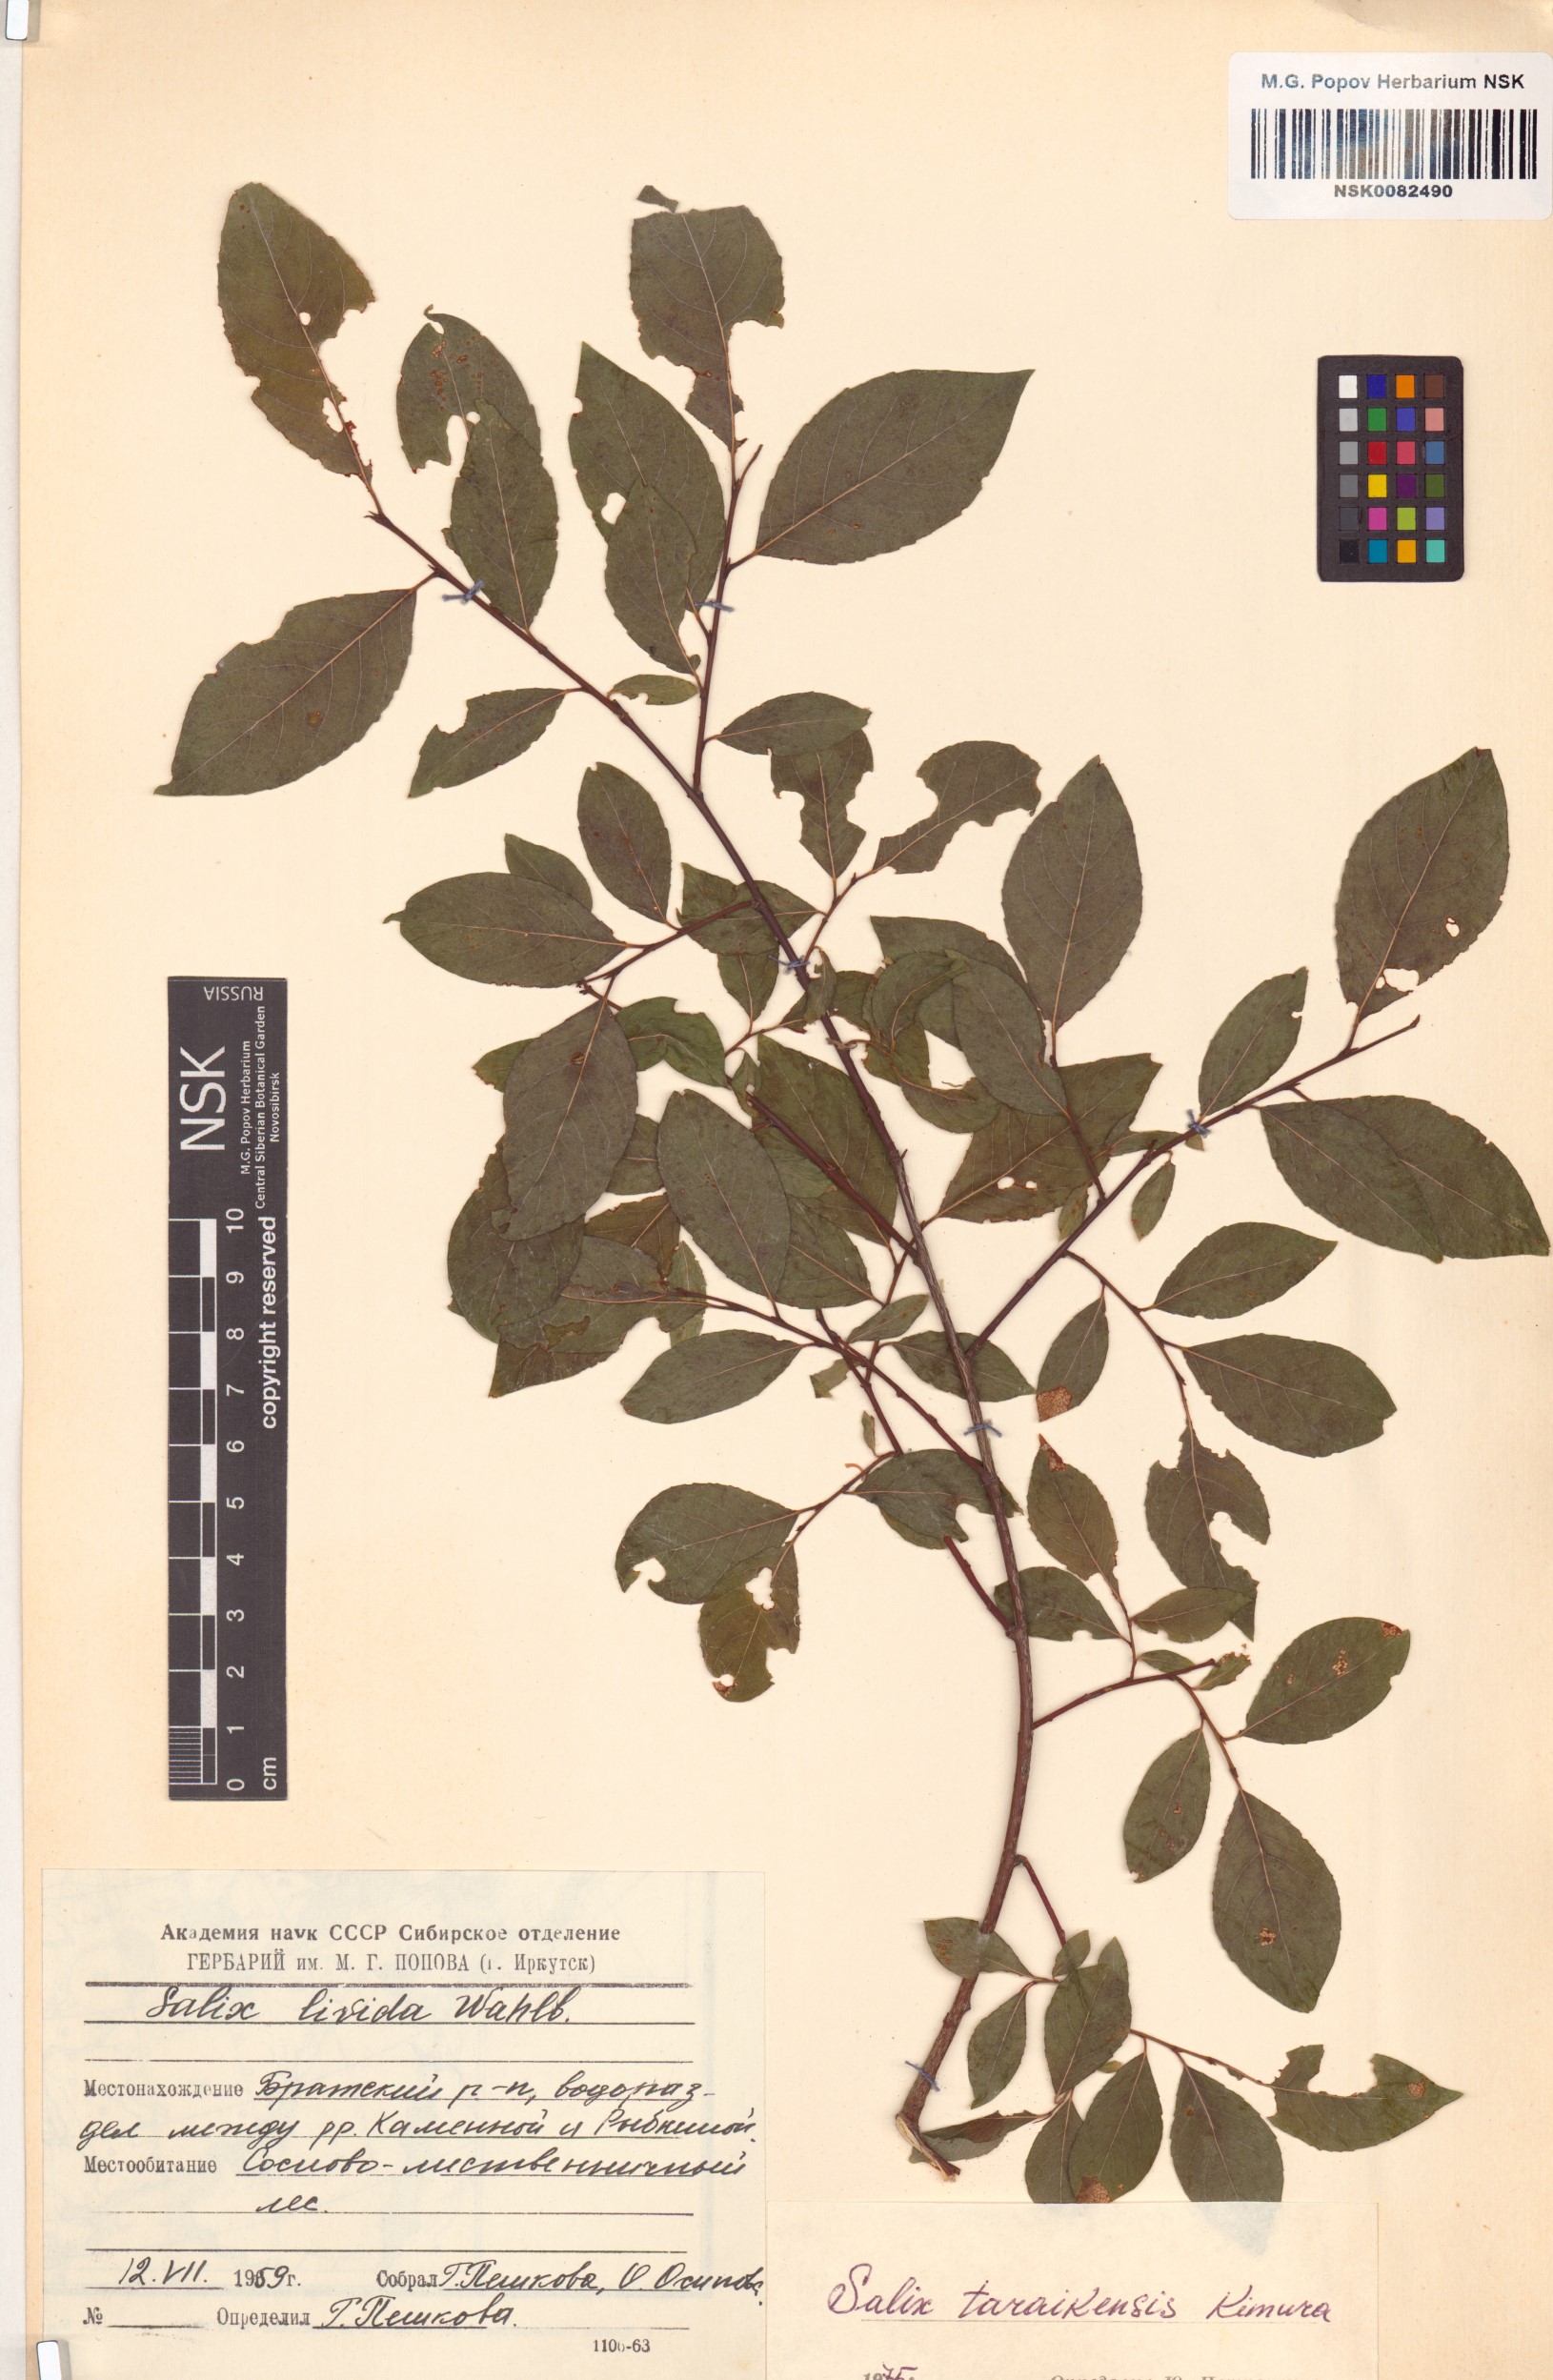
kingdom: Plantae
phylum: Tracheophyta
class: Magnoliopsida
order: Malpighiales
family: Salicaceae
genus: Salix
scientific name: Salix taraikensis
